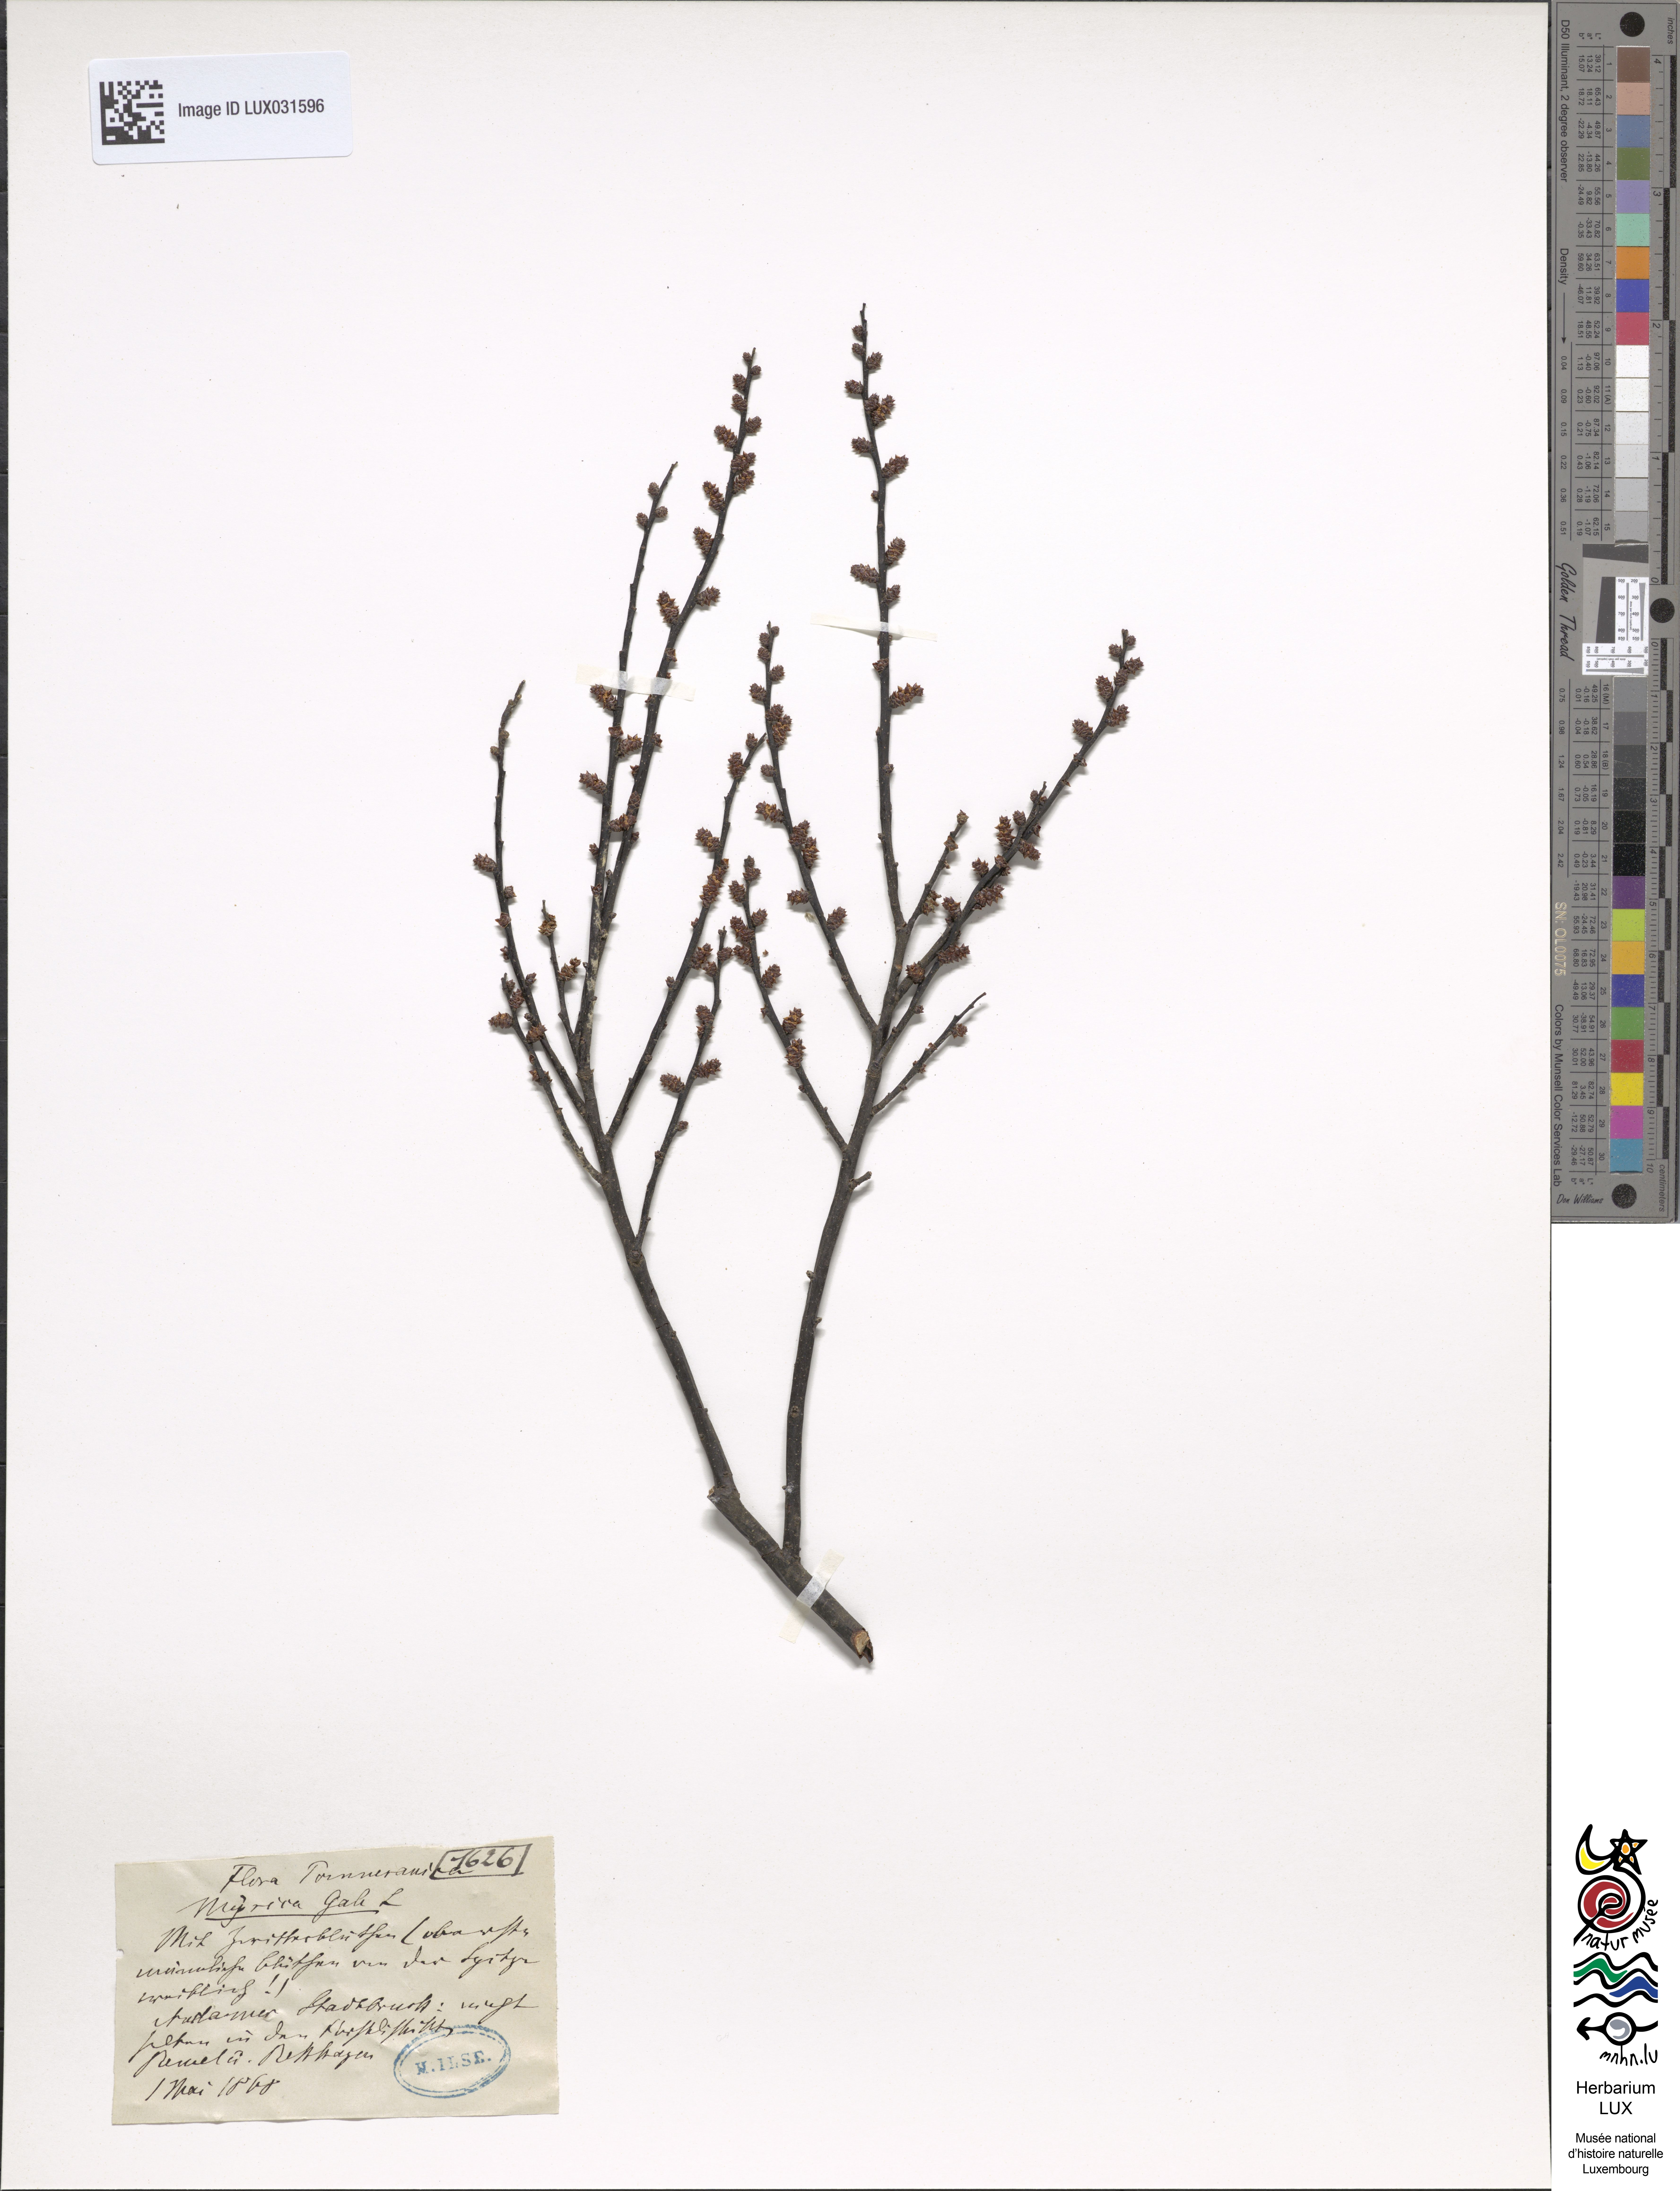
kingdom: Plantae
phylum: Tracheophyta
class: Magnoliopsida
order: Fagales
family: Myricaceae
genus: Myrica
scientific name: Myrica gale
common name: Sweet gale
